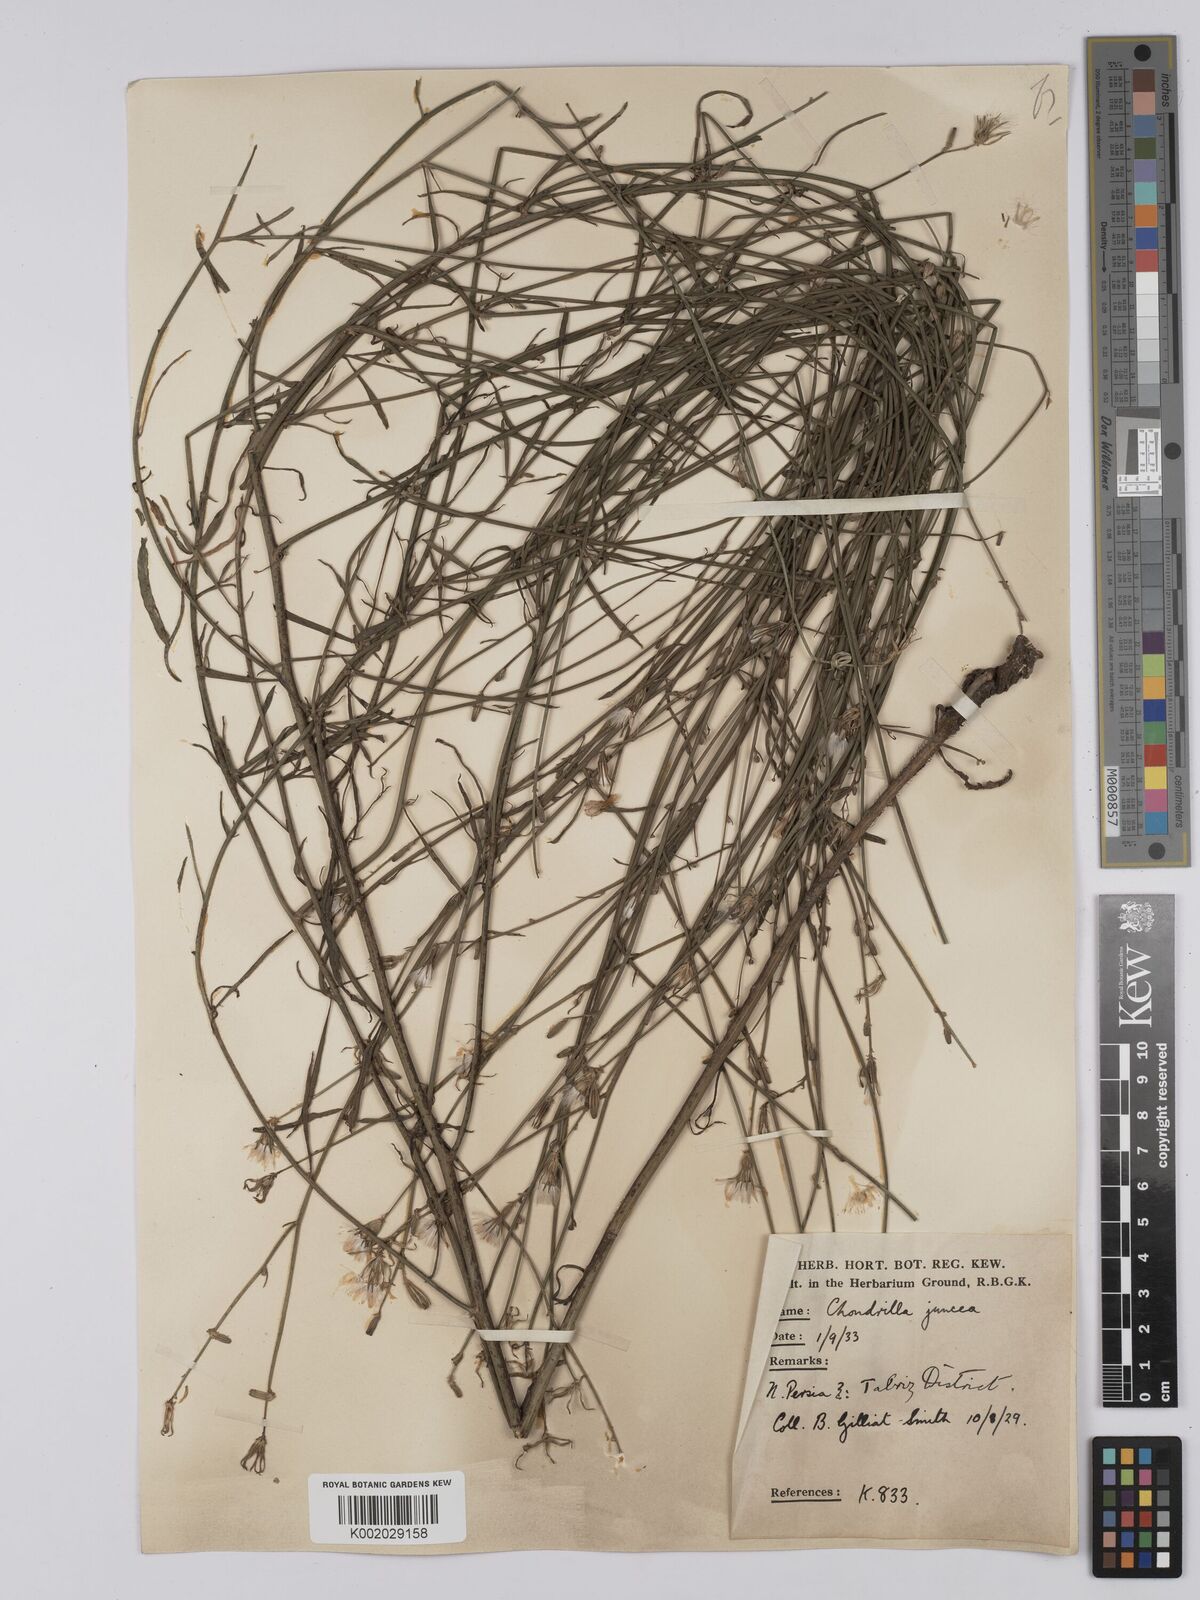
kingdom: Plantae
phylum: Tracheophyta
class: Magnoliopsida
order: Asterales
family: Asteraceae
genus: Chondrilla
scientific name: Chondrilla juncea
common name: Skeleton weed
